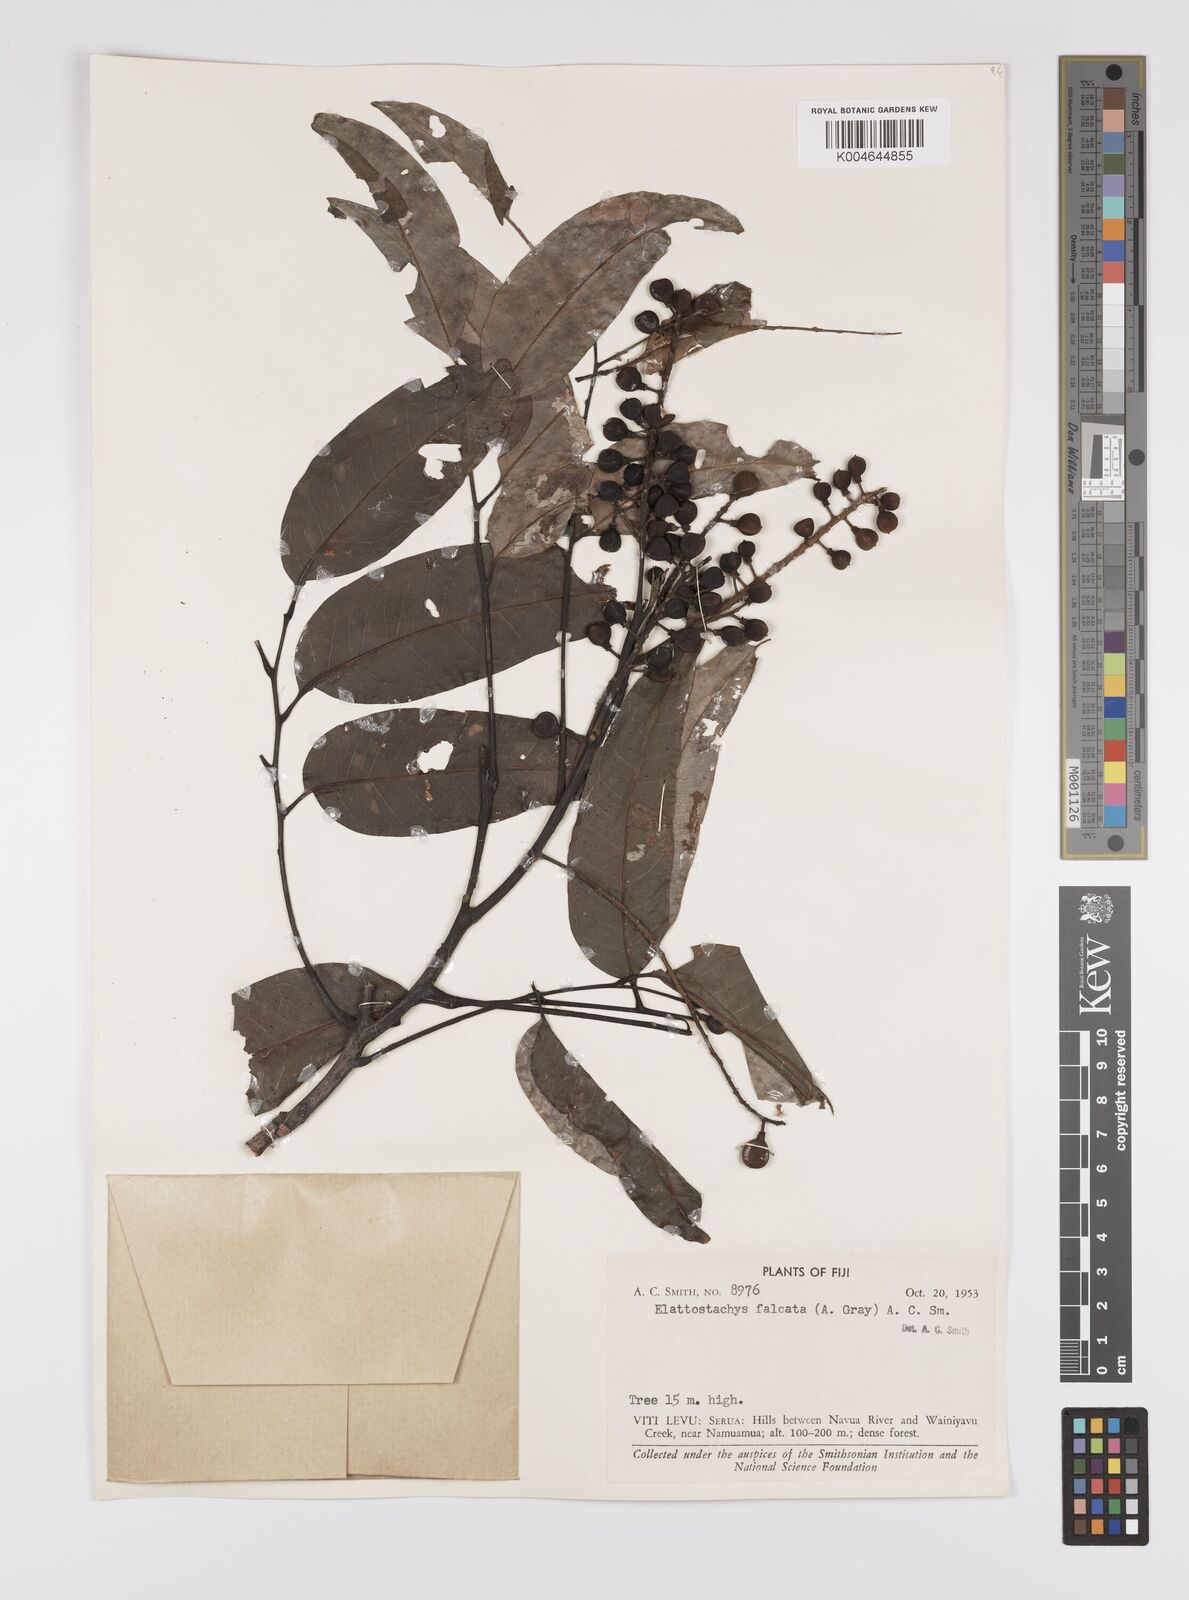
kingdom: Plantae
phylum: Tracheophyta
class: Magnoliopsida
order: Sapindales
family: Sapindaceae
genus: Elattostachys
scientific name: Elattostachys apetala
